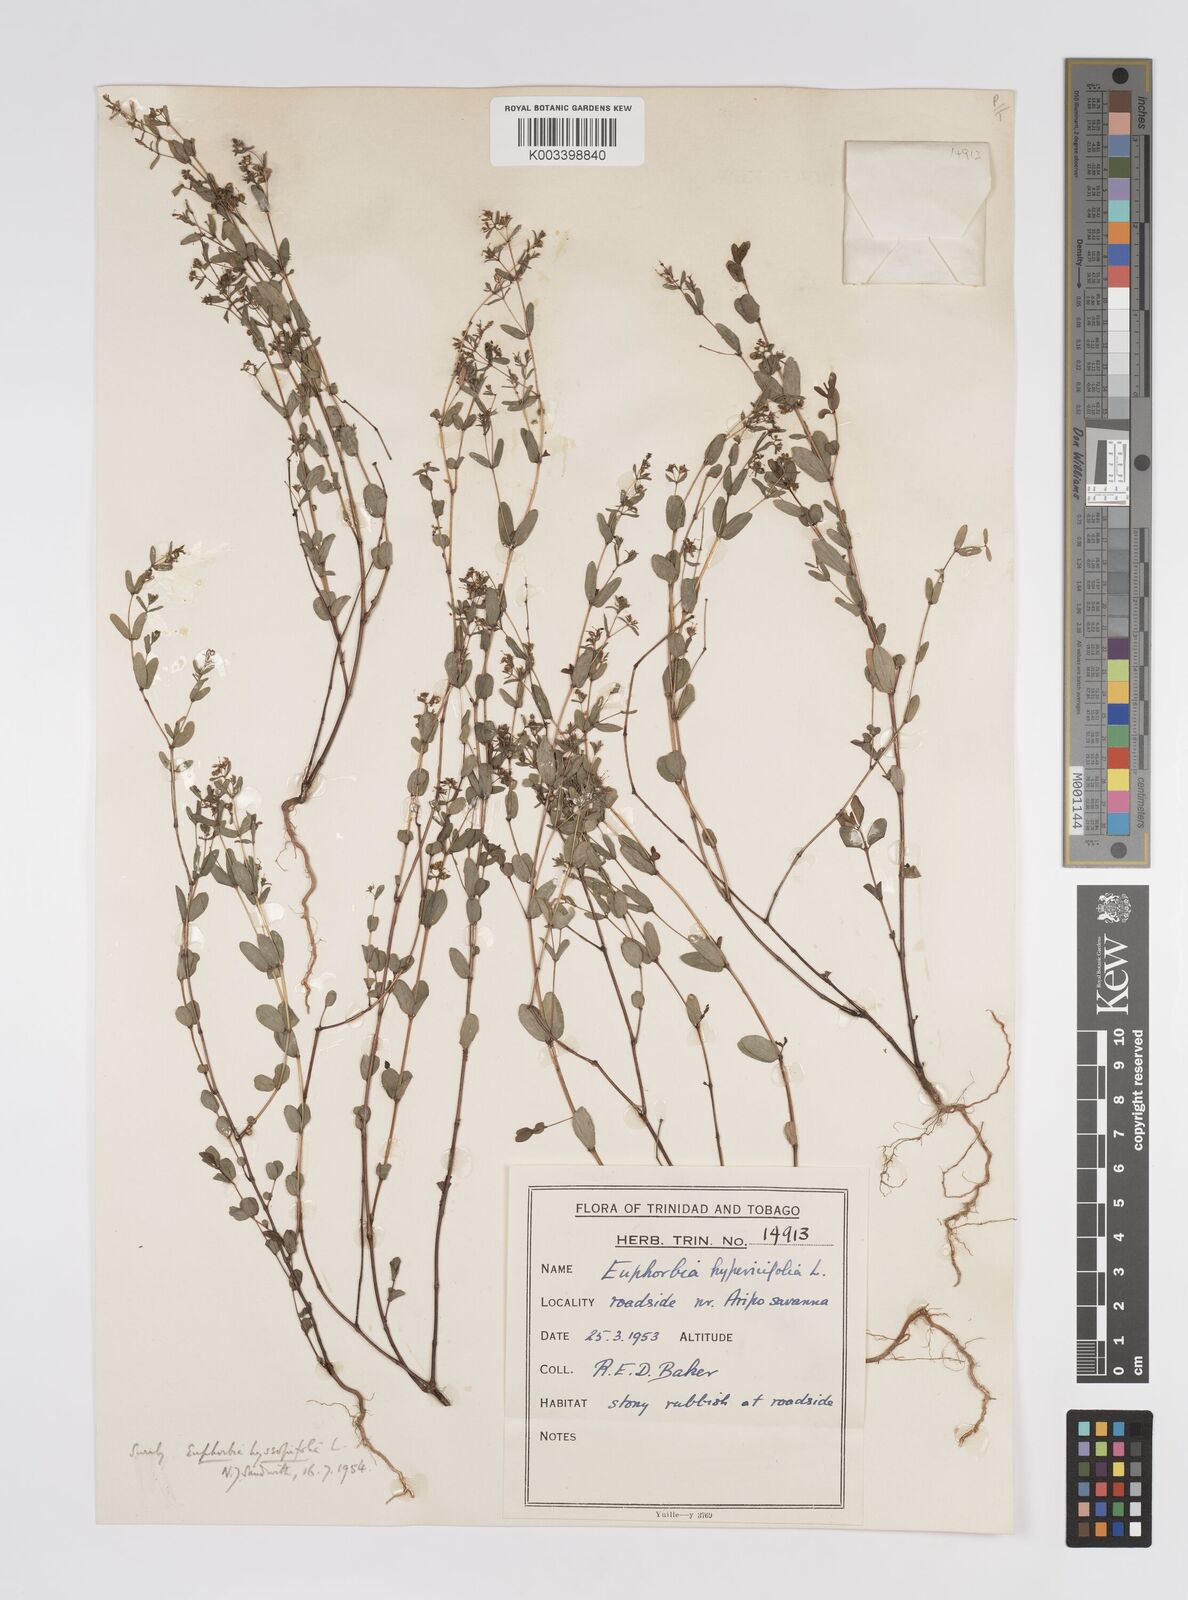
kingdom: Plantae
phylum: Tracheophyta
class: Magnoliopsida
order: Malpighiales
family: Euphorbiaceae
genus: Euphorbia
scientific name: Euphorbia hyssopifolia
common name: Hyssopleaf sandmat
